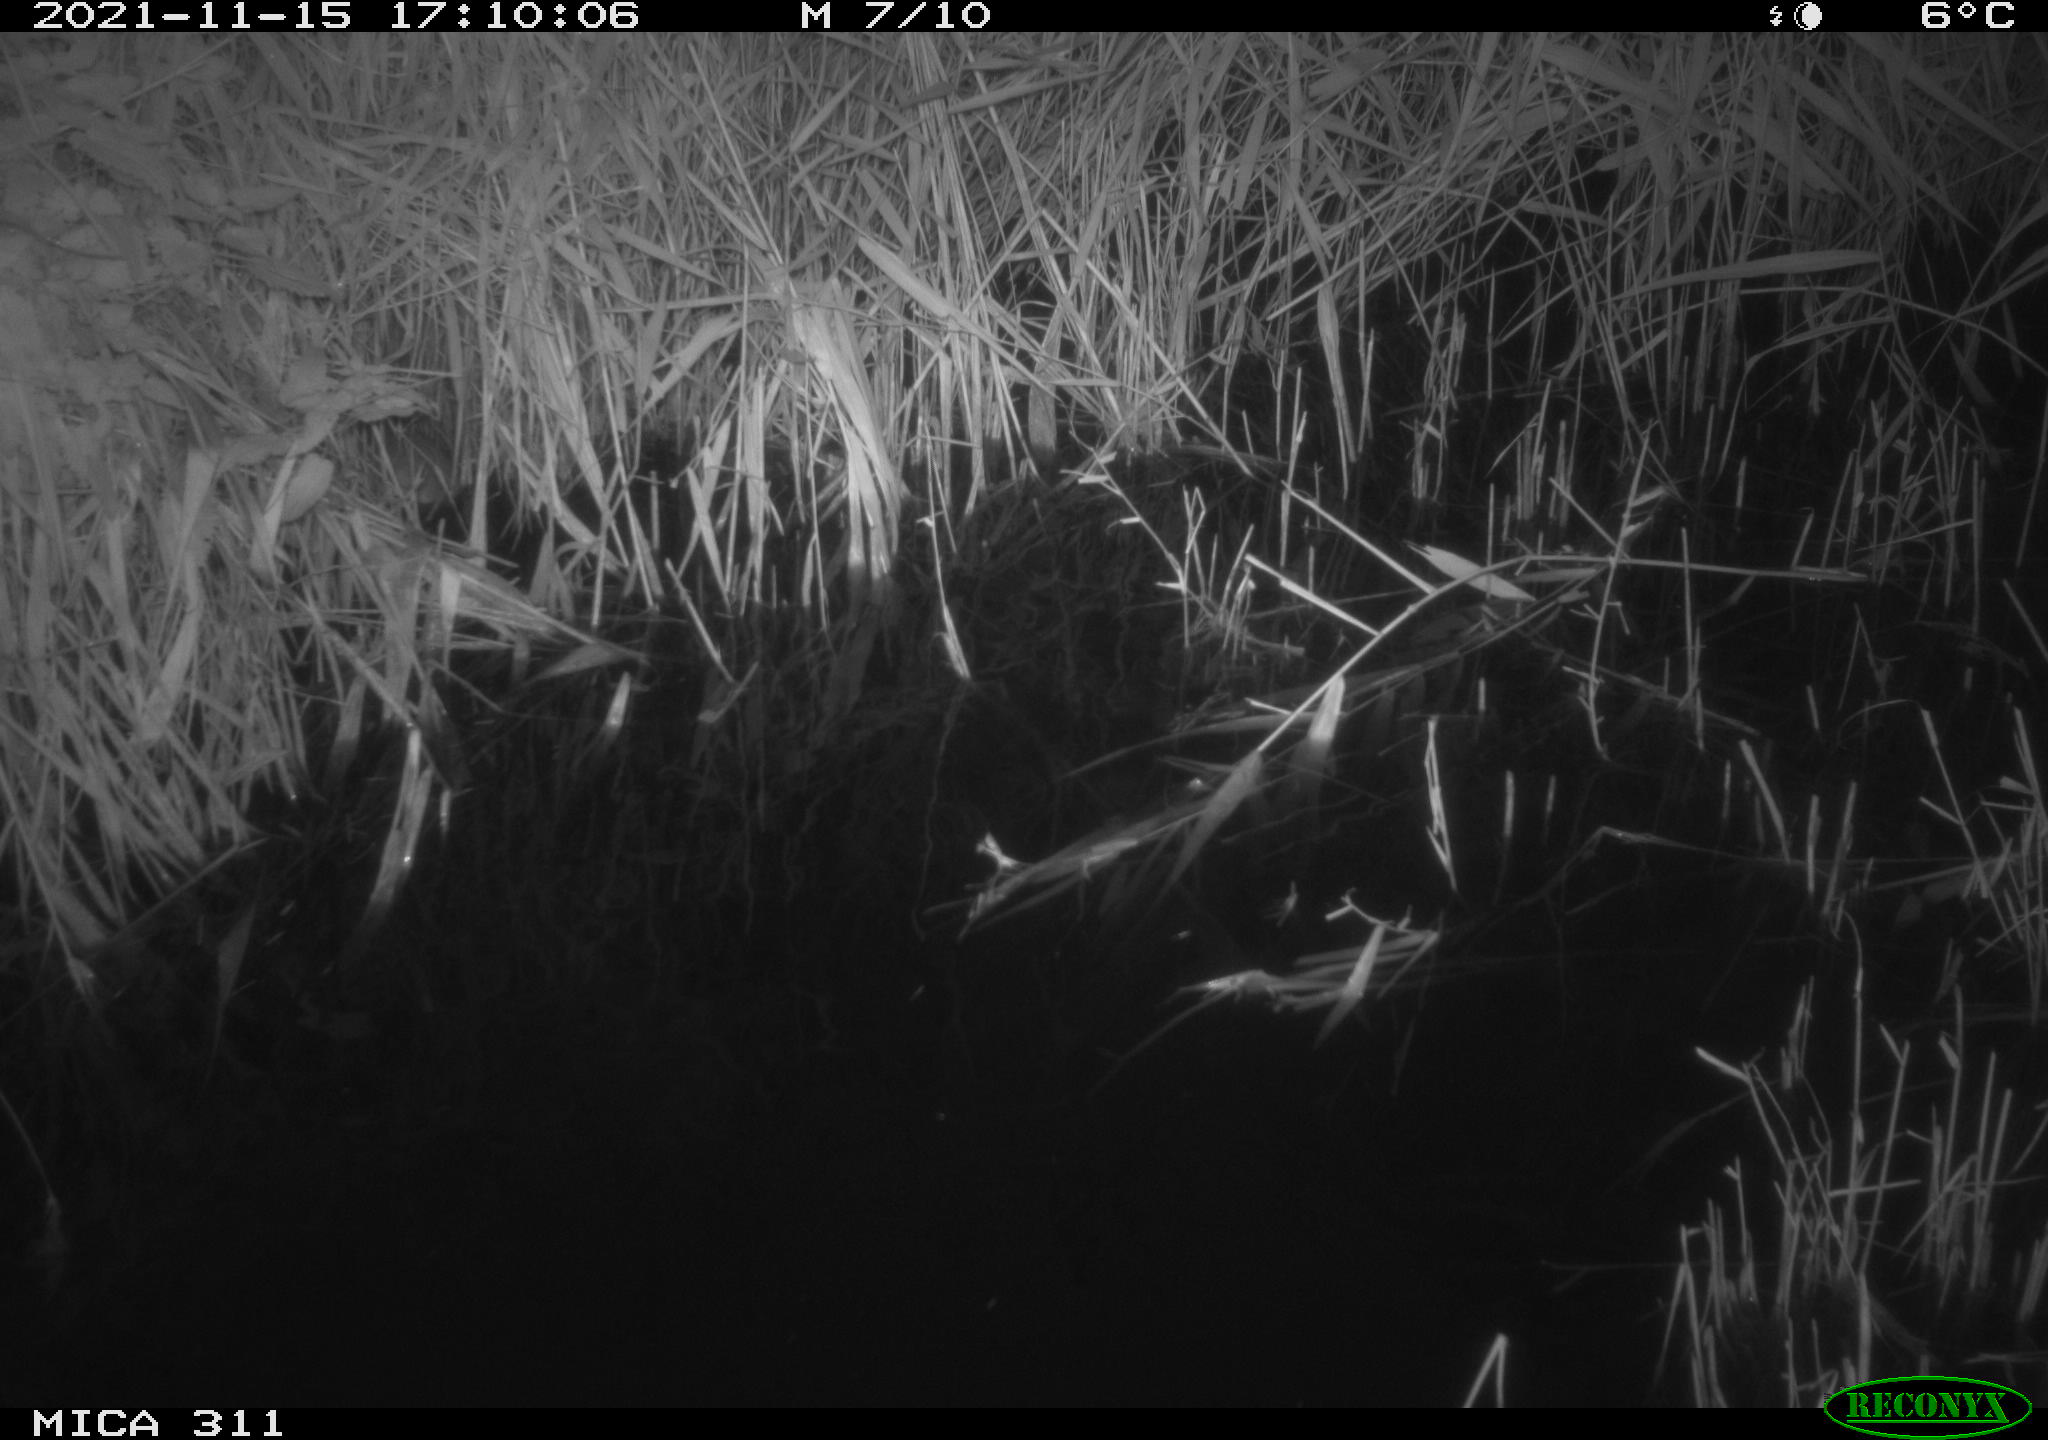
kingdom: Animalia
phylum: Chordata
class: Mammalia
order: Rodentia
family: Muridae
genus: Rattus
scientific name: Rattus norvegicus
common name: Brown rat
